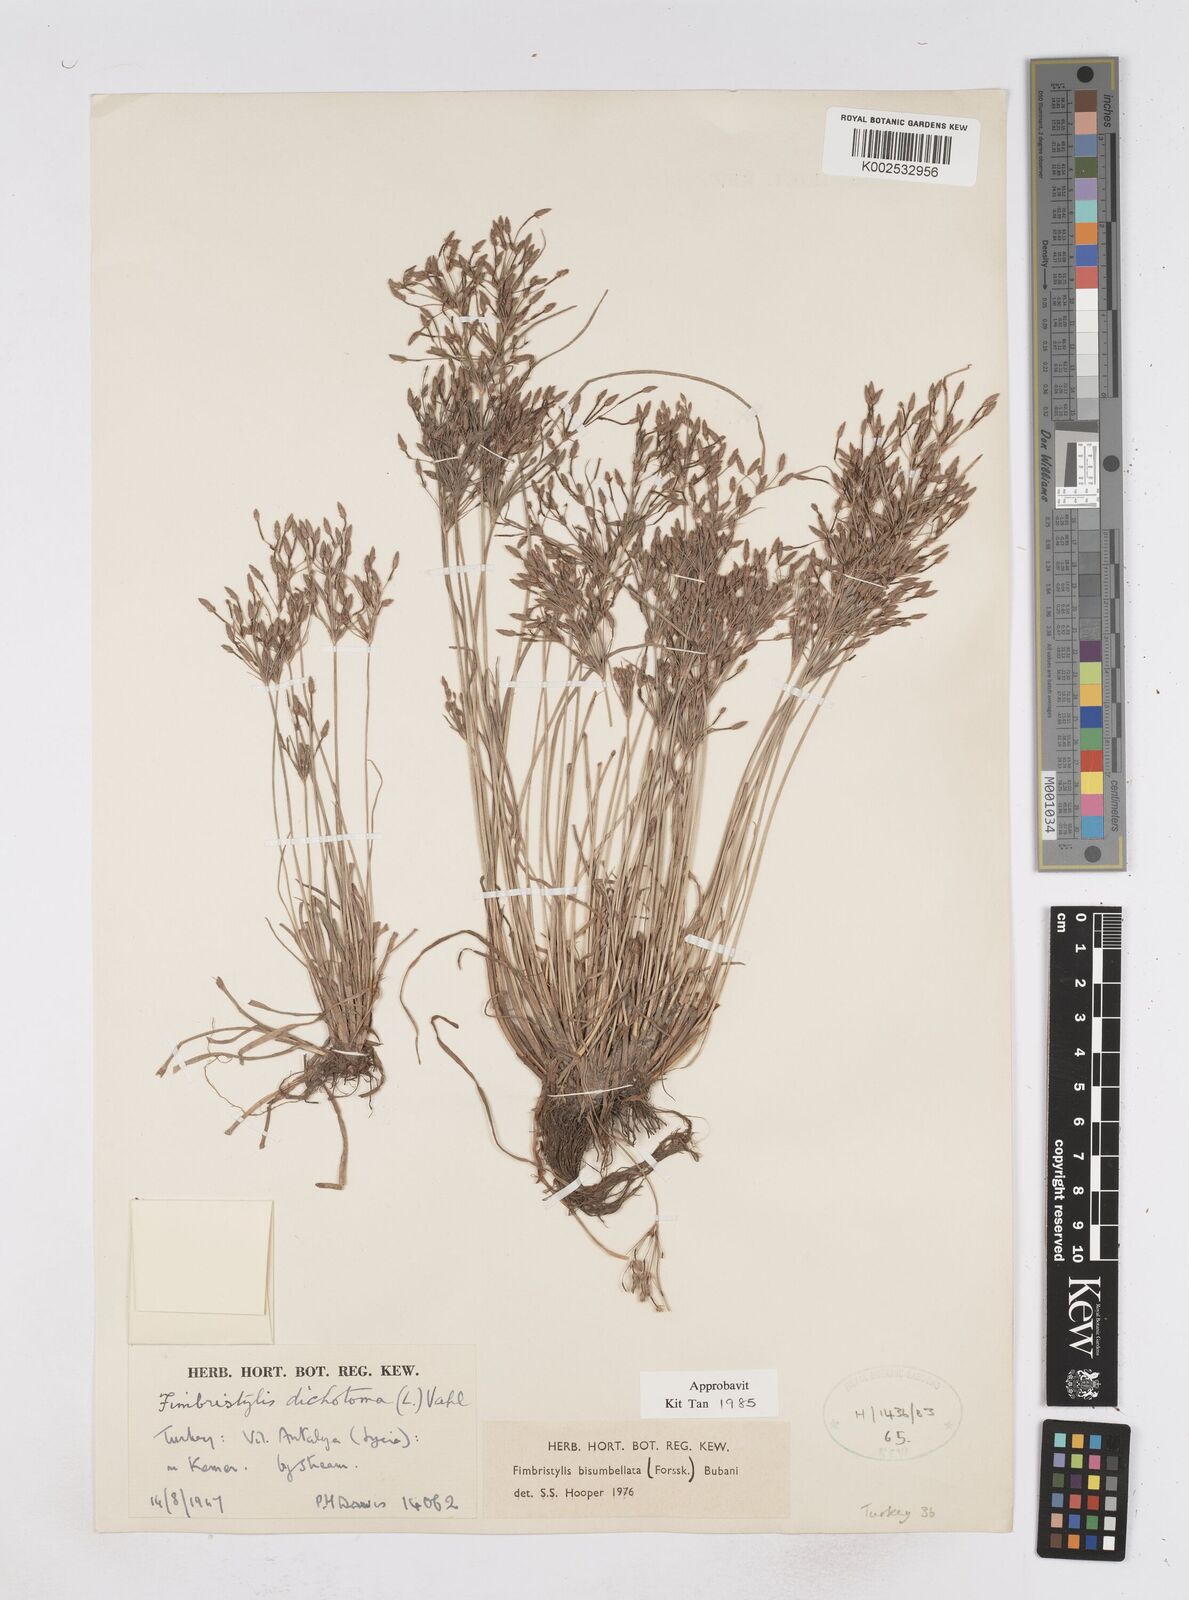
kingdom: Plantae
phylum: Tracheophyta
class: Liliopsida
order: Poales
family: Cyperaceae
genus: Fimbristylis
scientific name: Fimbristylis bisumbellata
